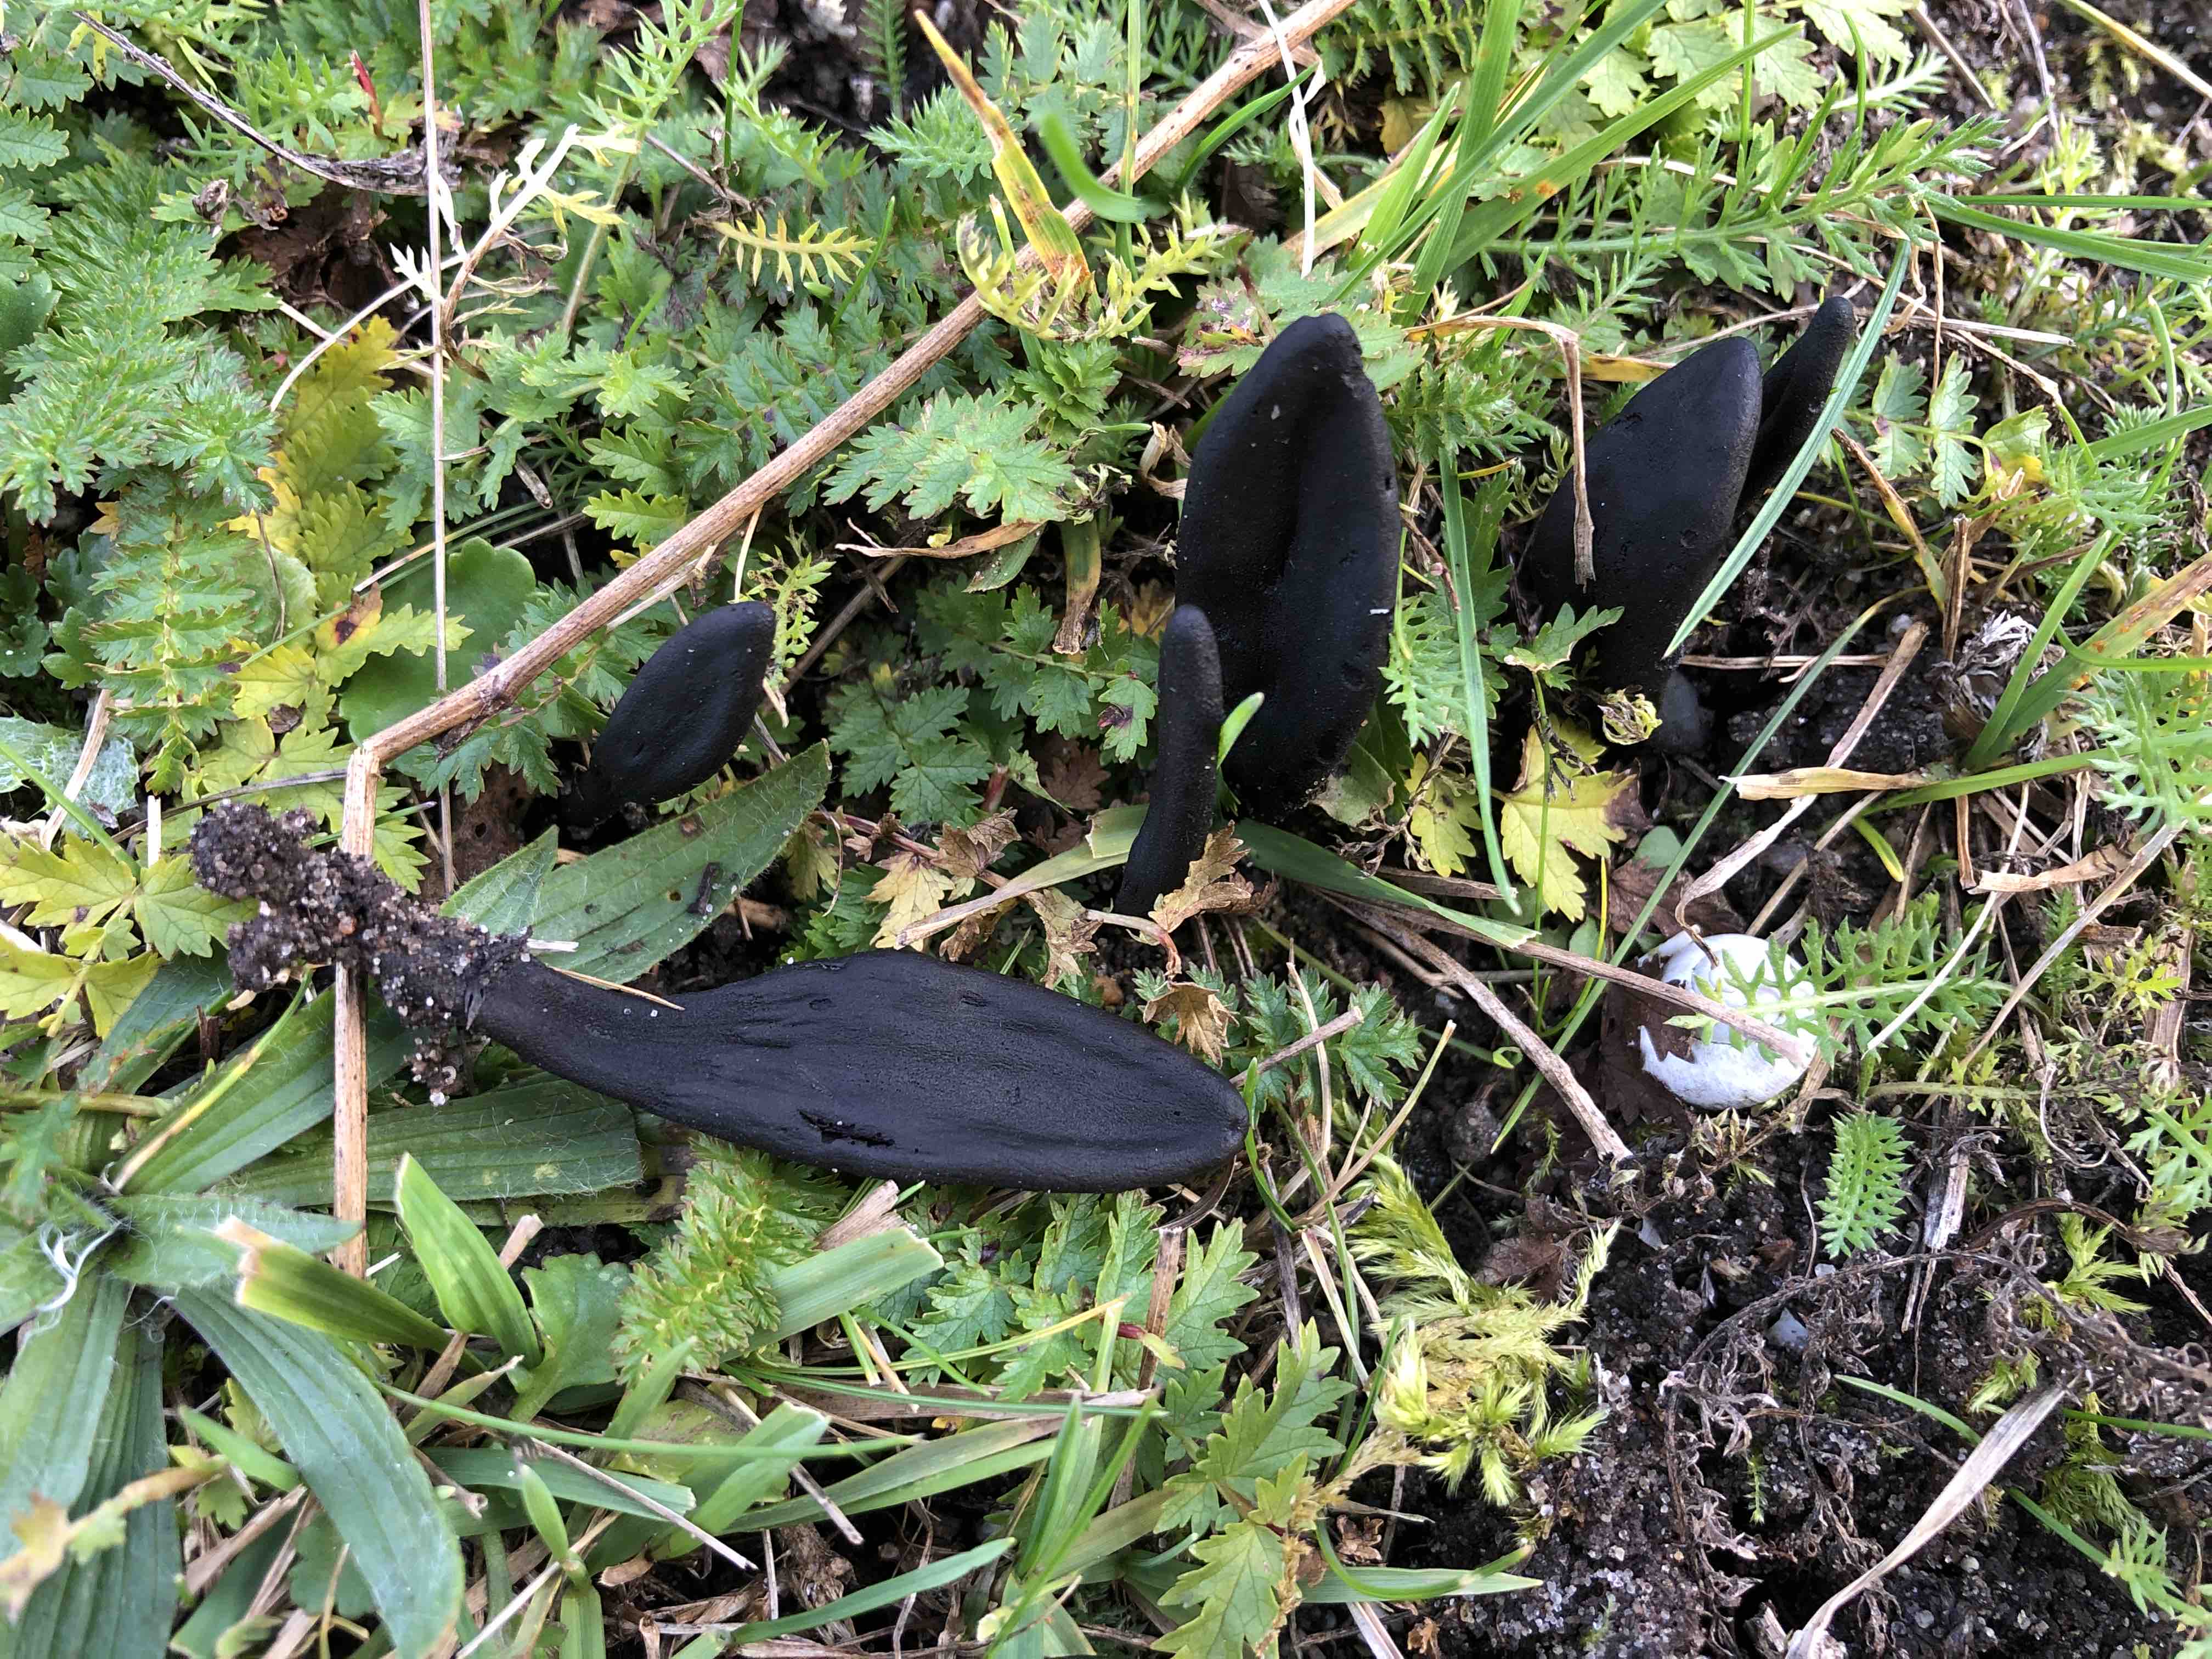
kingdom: Fungi
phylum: Ascomycota
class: Geoglossomycetes
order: Geoglossales
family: Geoglossaceae
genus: Geoglossum
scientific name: Geoglossum cookeianum
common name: bred jordtunge
